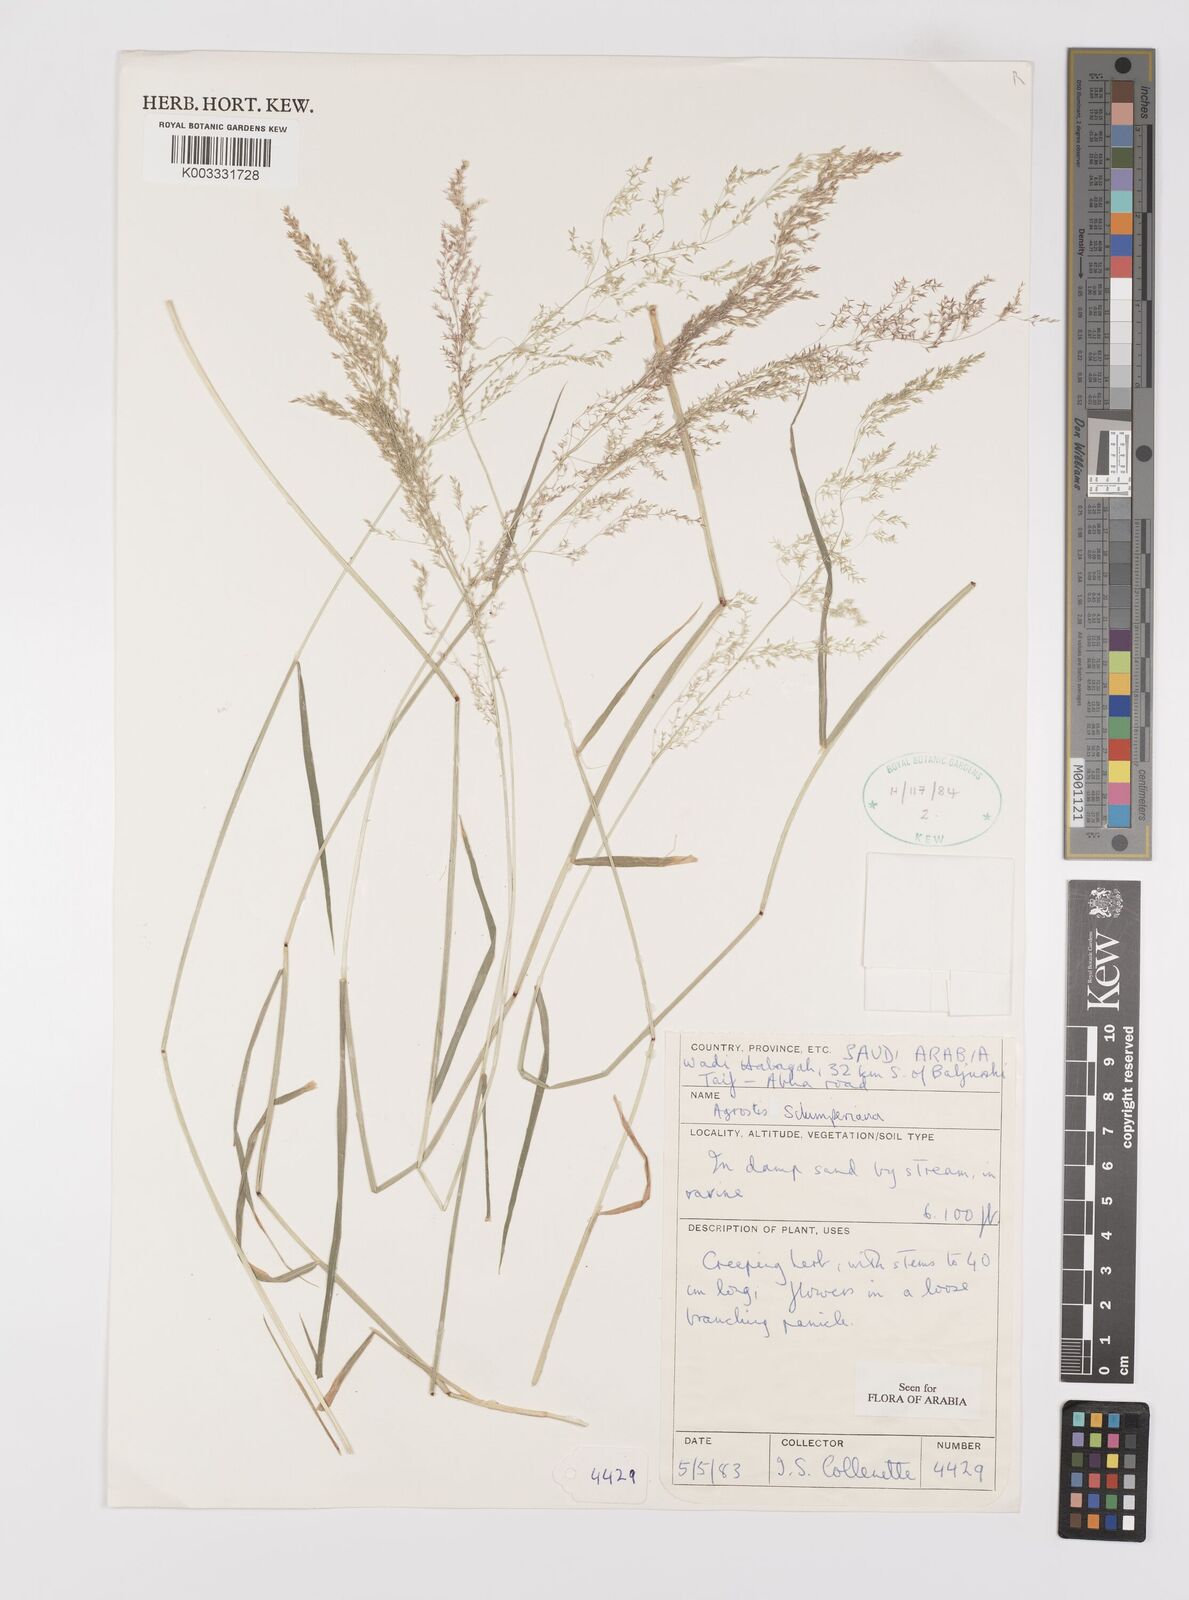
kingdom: Plantae
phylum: Tracheophyta
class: Liliopsida
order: Poales
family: Poaceae
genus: Polypogon
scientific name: Polypogon schimperianus
